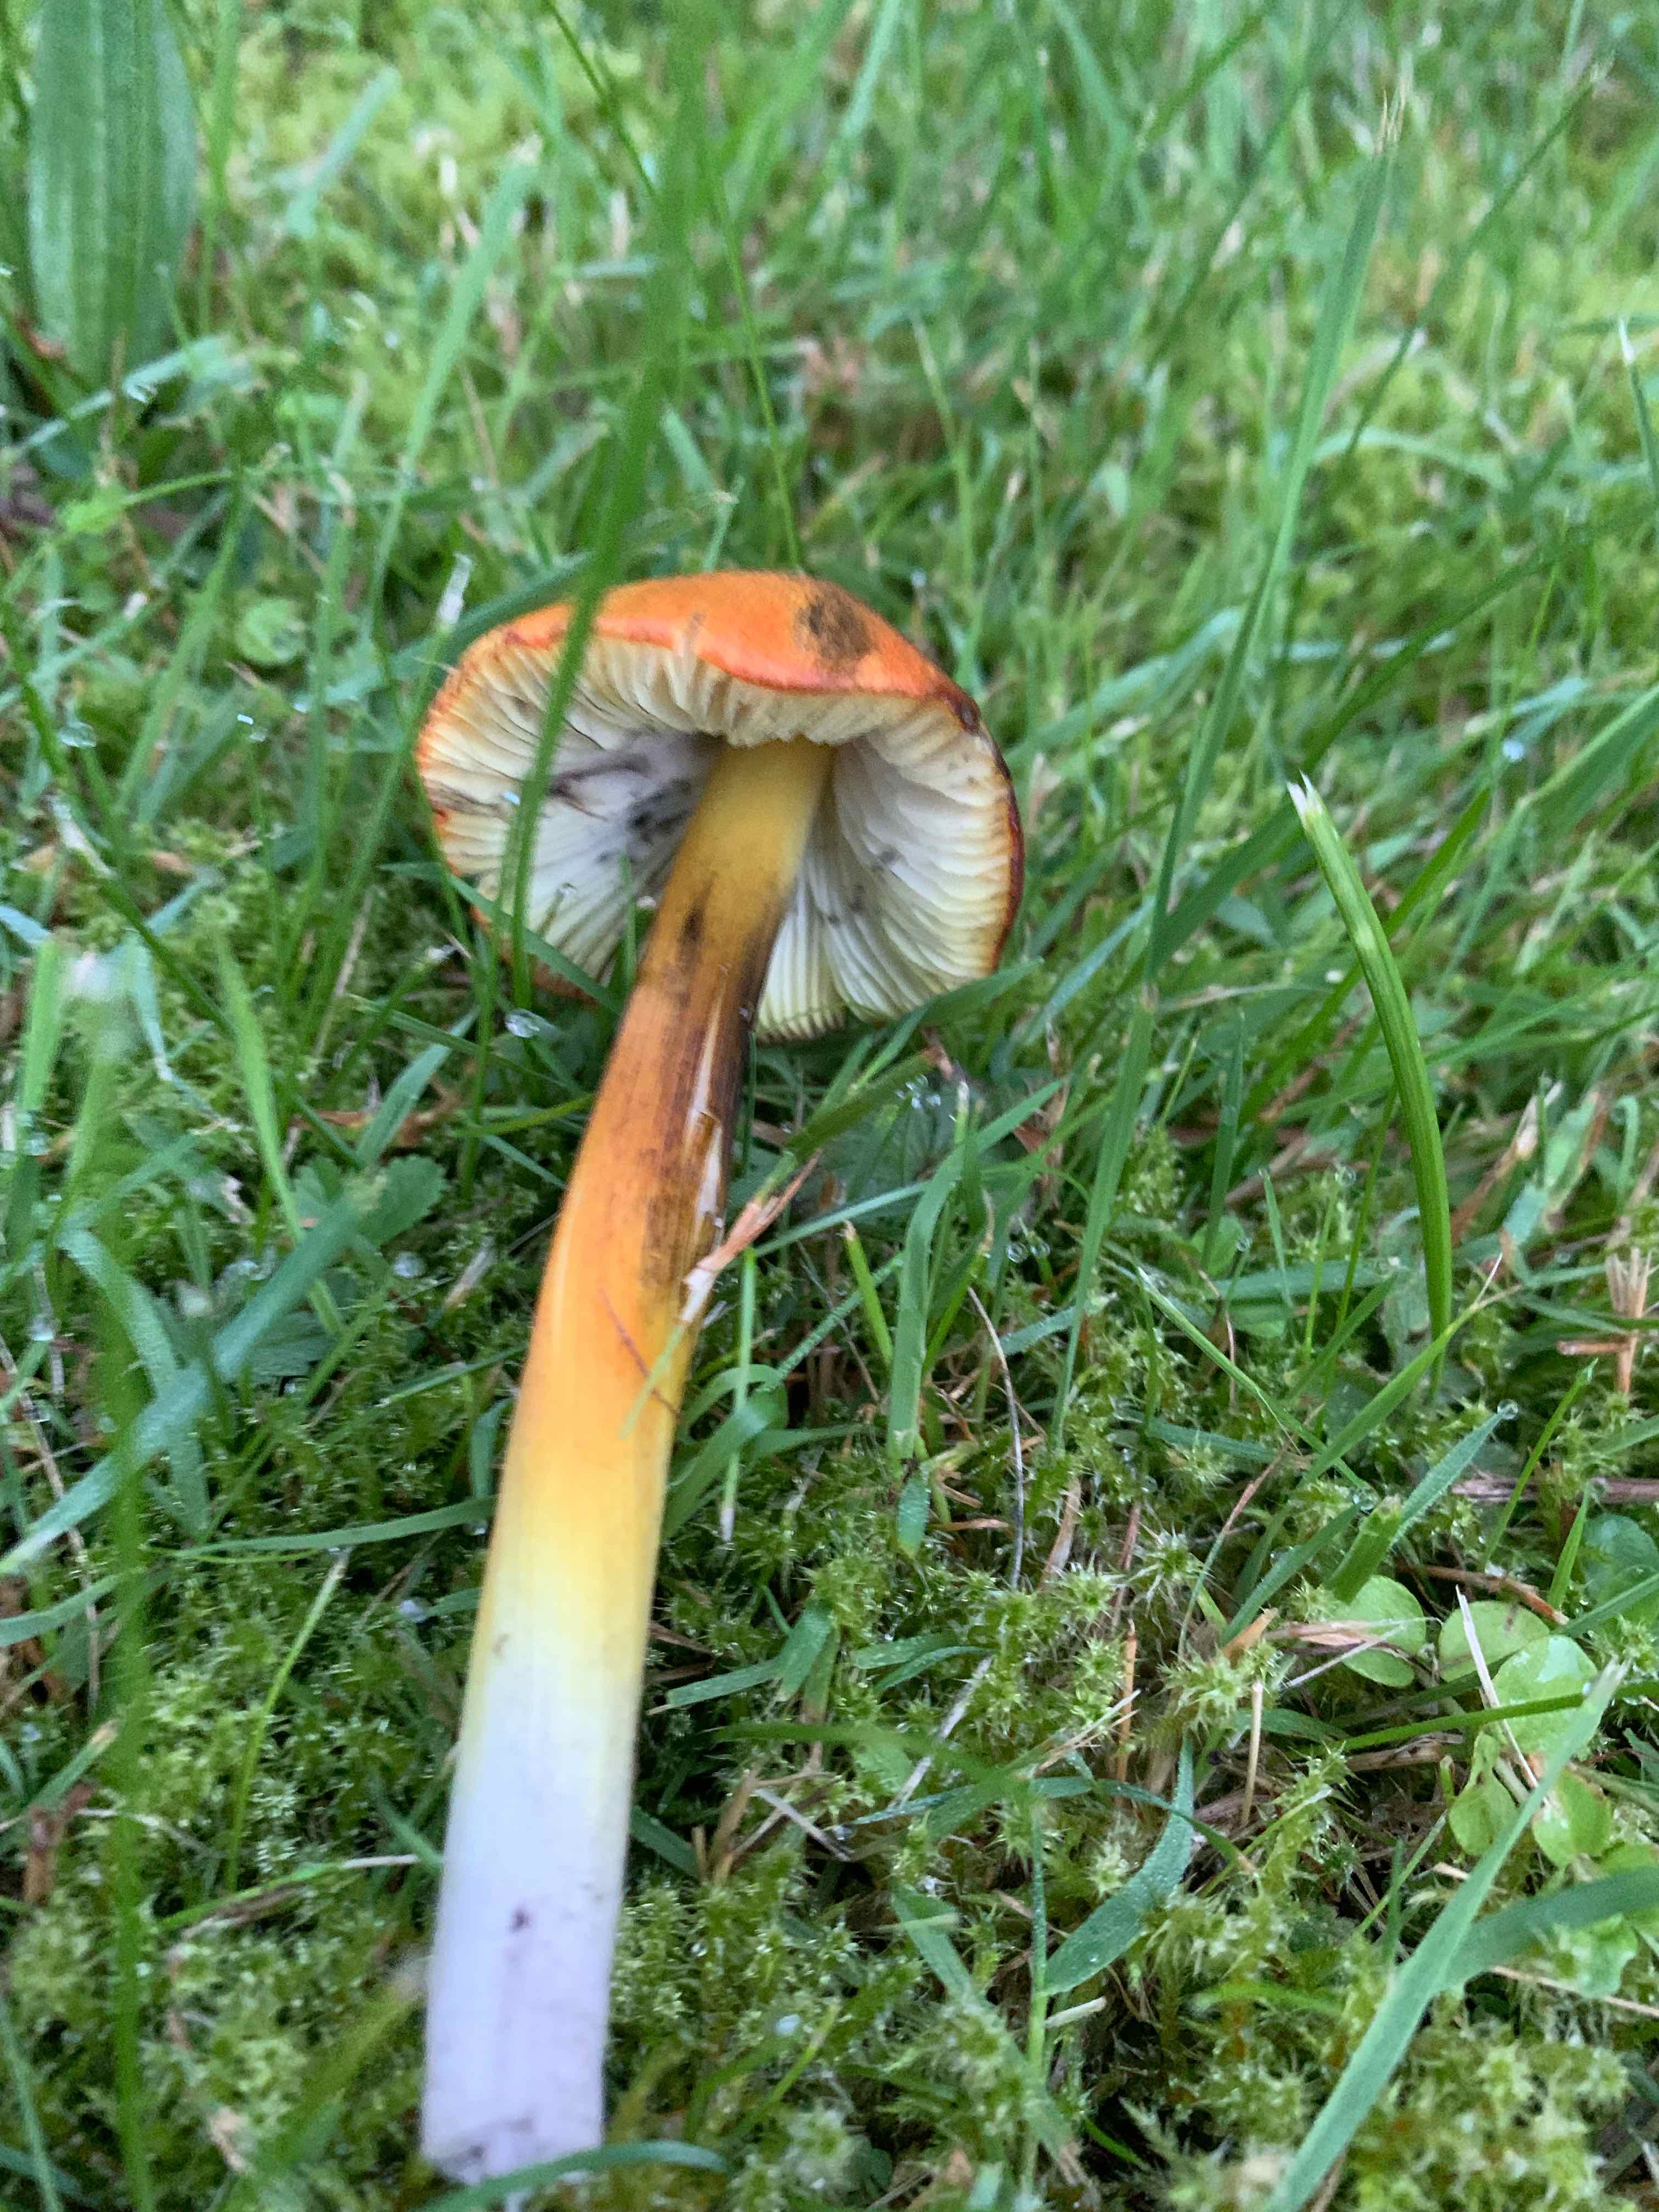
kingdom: Fungi
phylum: Basidiomycota
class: Agaricomycetes
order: Agaricales
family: Hygrophoraceae
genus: Hygrocybe
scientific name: Hygrocybe conica
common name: kegle-vokshat
